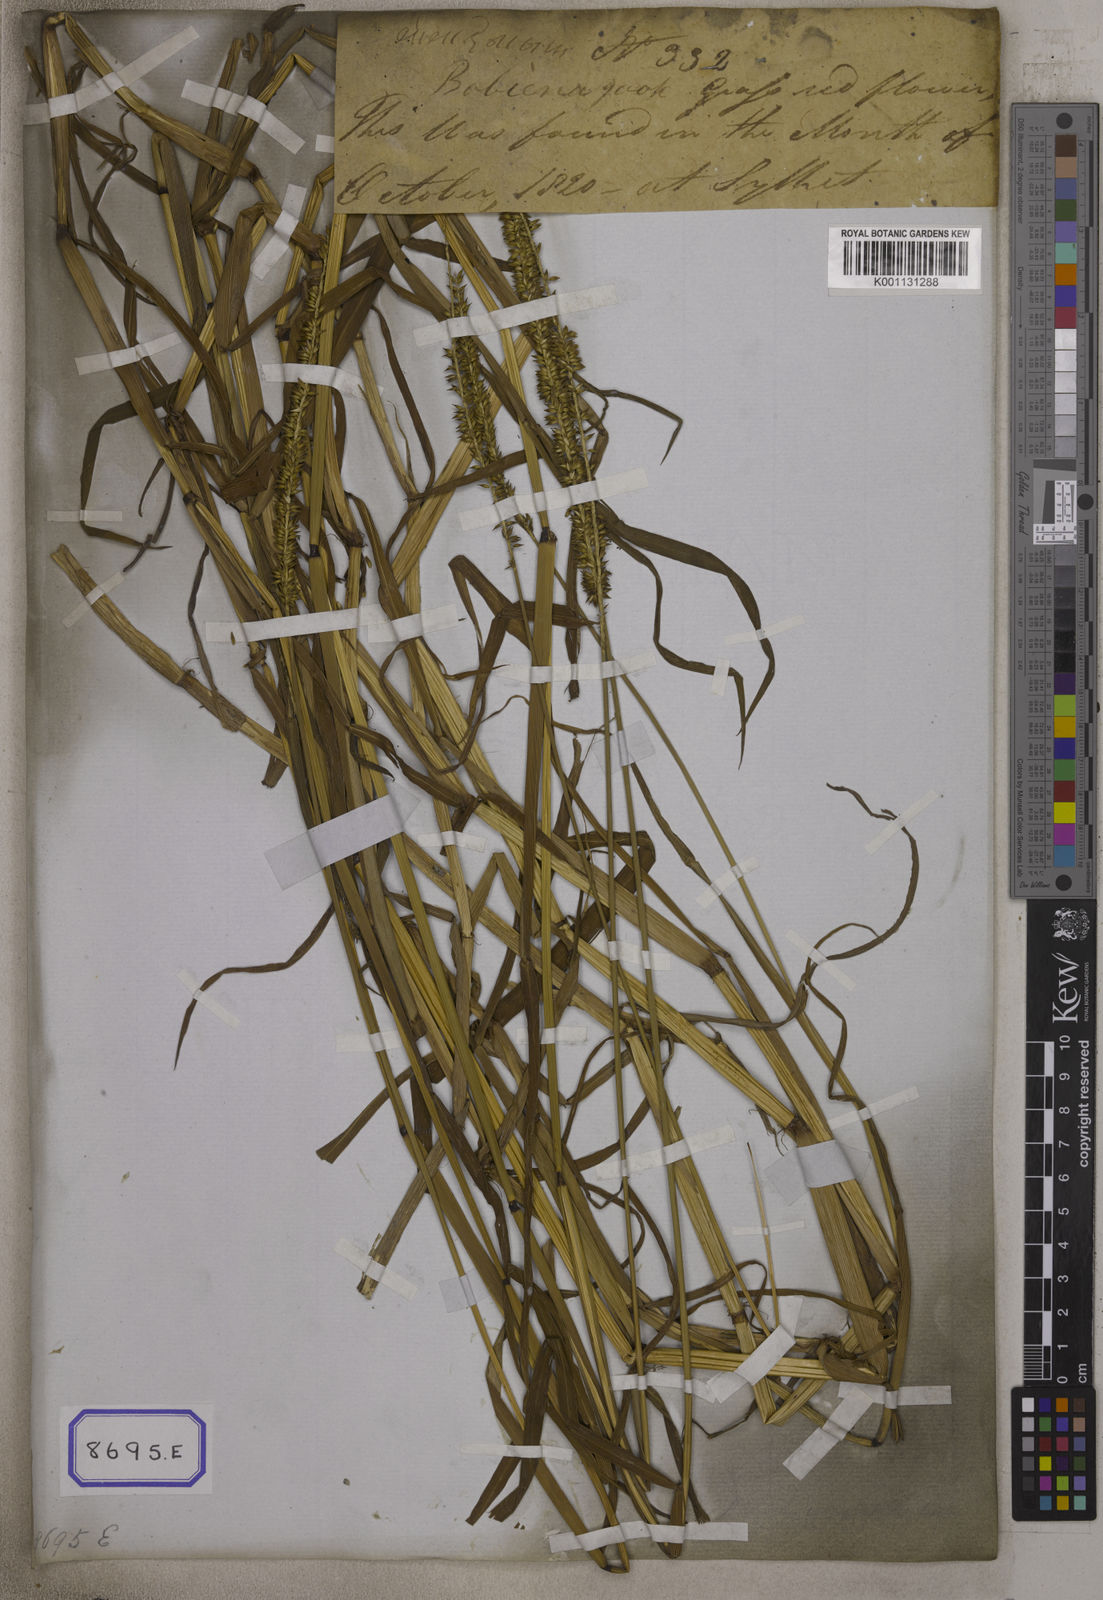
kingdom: Plantae
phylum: Tracheophyta
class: Liliopsida
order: Poales
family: Poaceae
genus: Sacciolepis
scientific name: Sacciolepis interrupta
